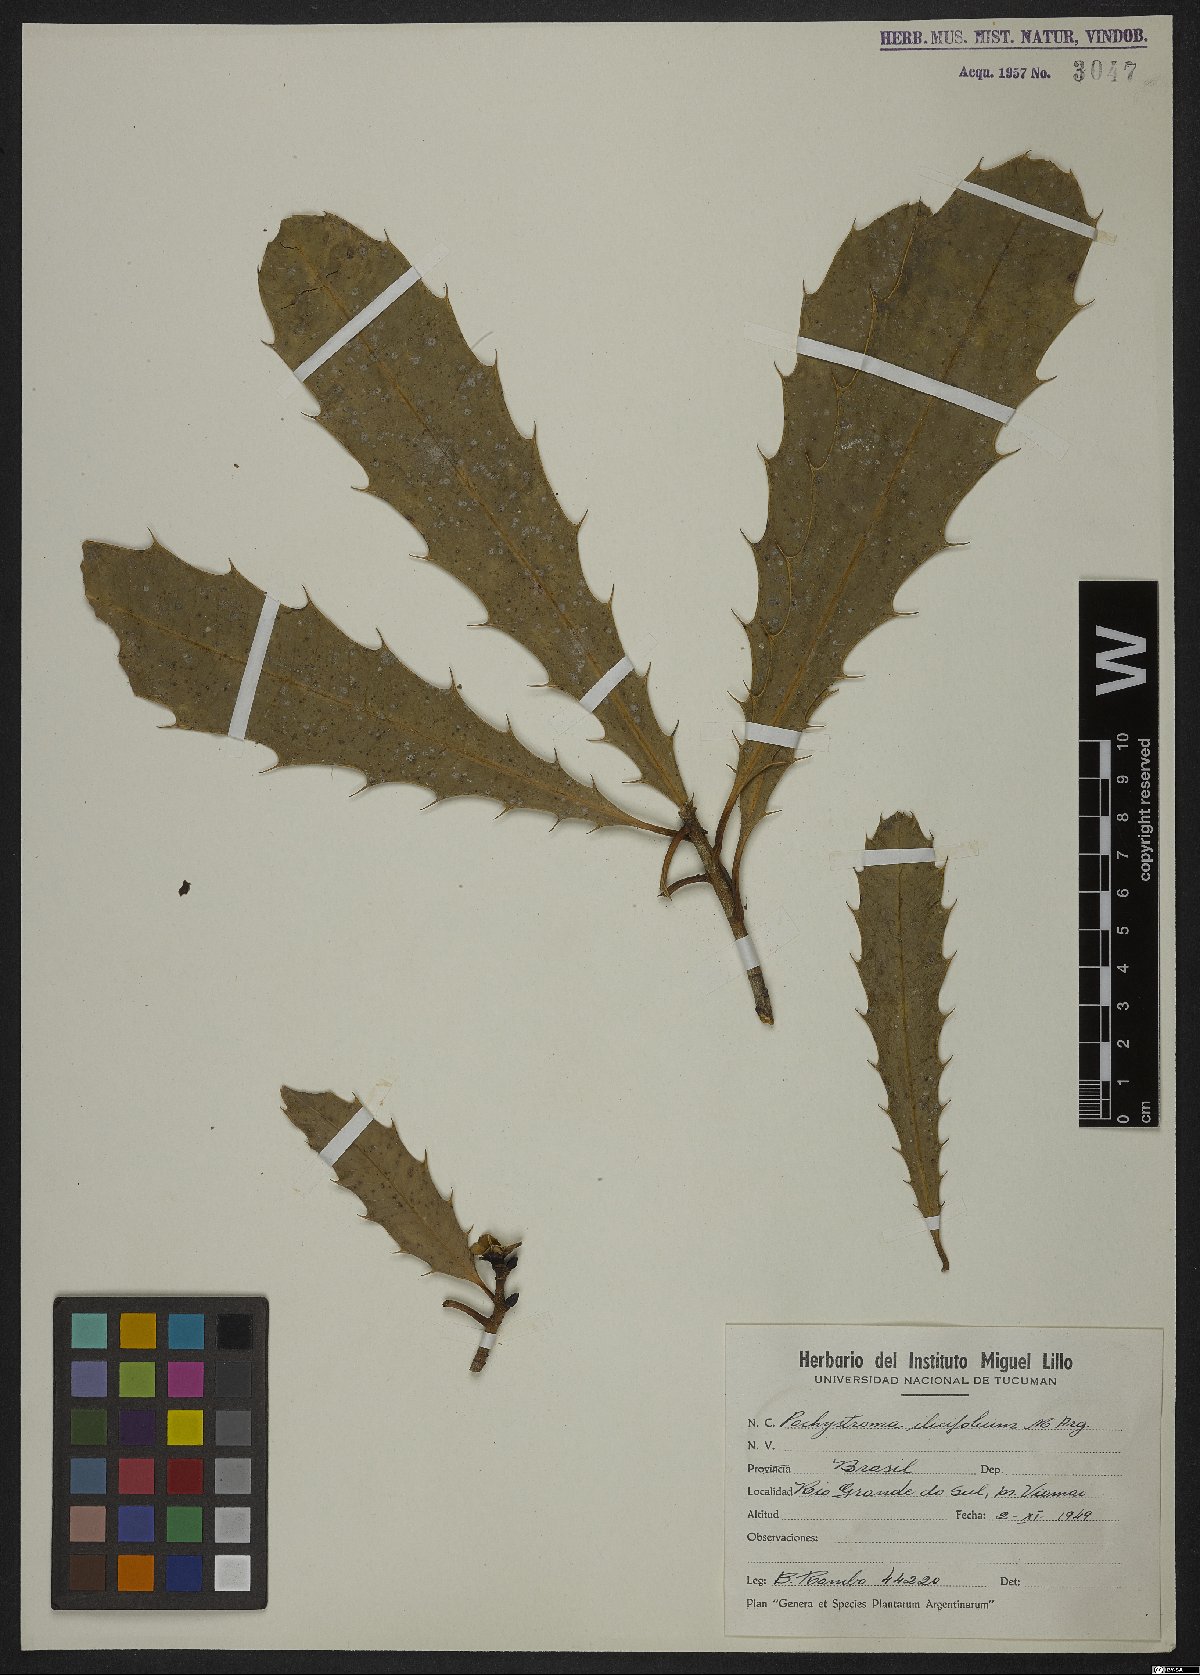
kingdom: Plantae
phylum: Tracheophyta
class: Magnoliopsida
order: Malpighiales
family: Euphorbiaceae
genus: Pachystroma
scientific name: Pachystroma longifolium
